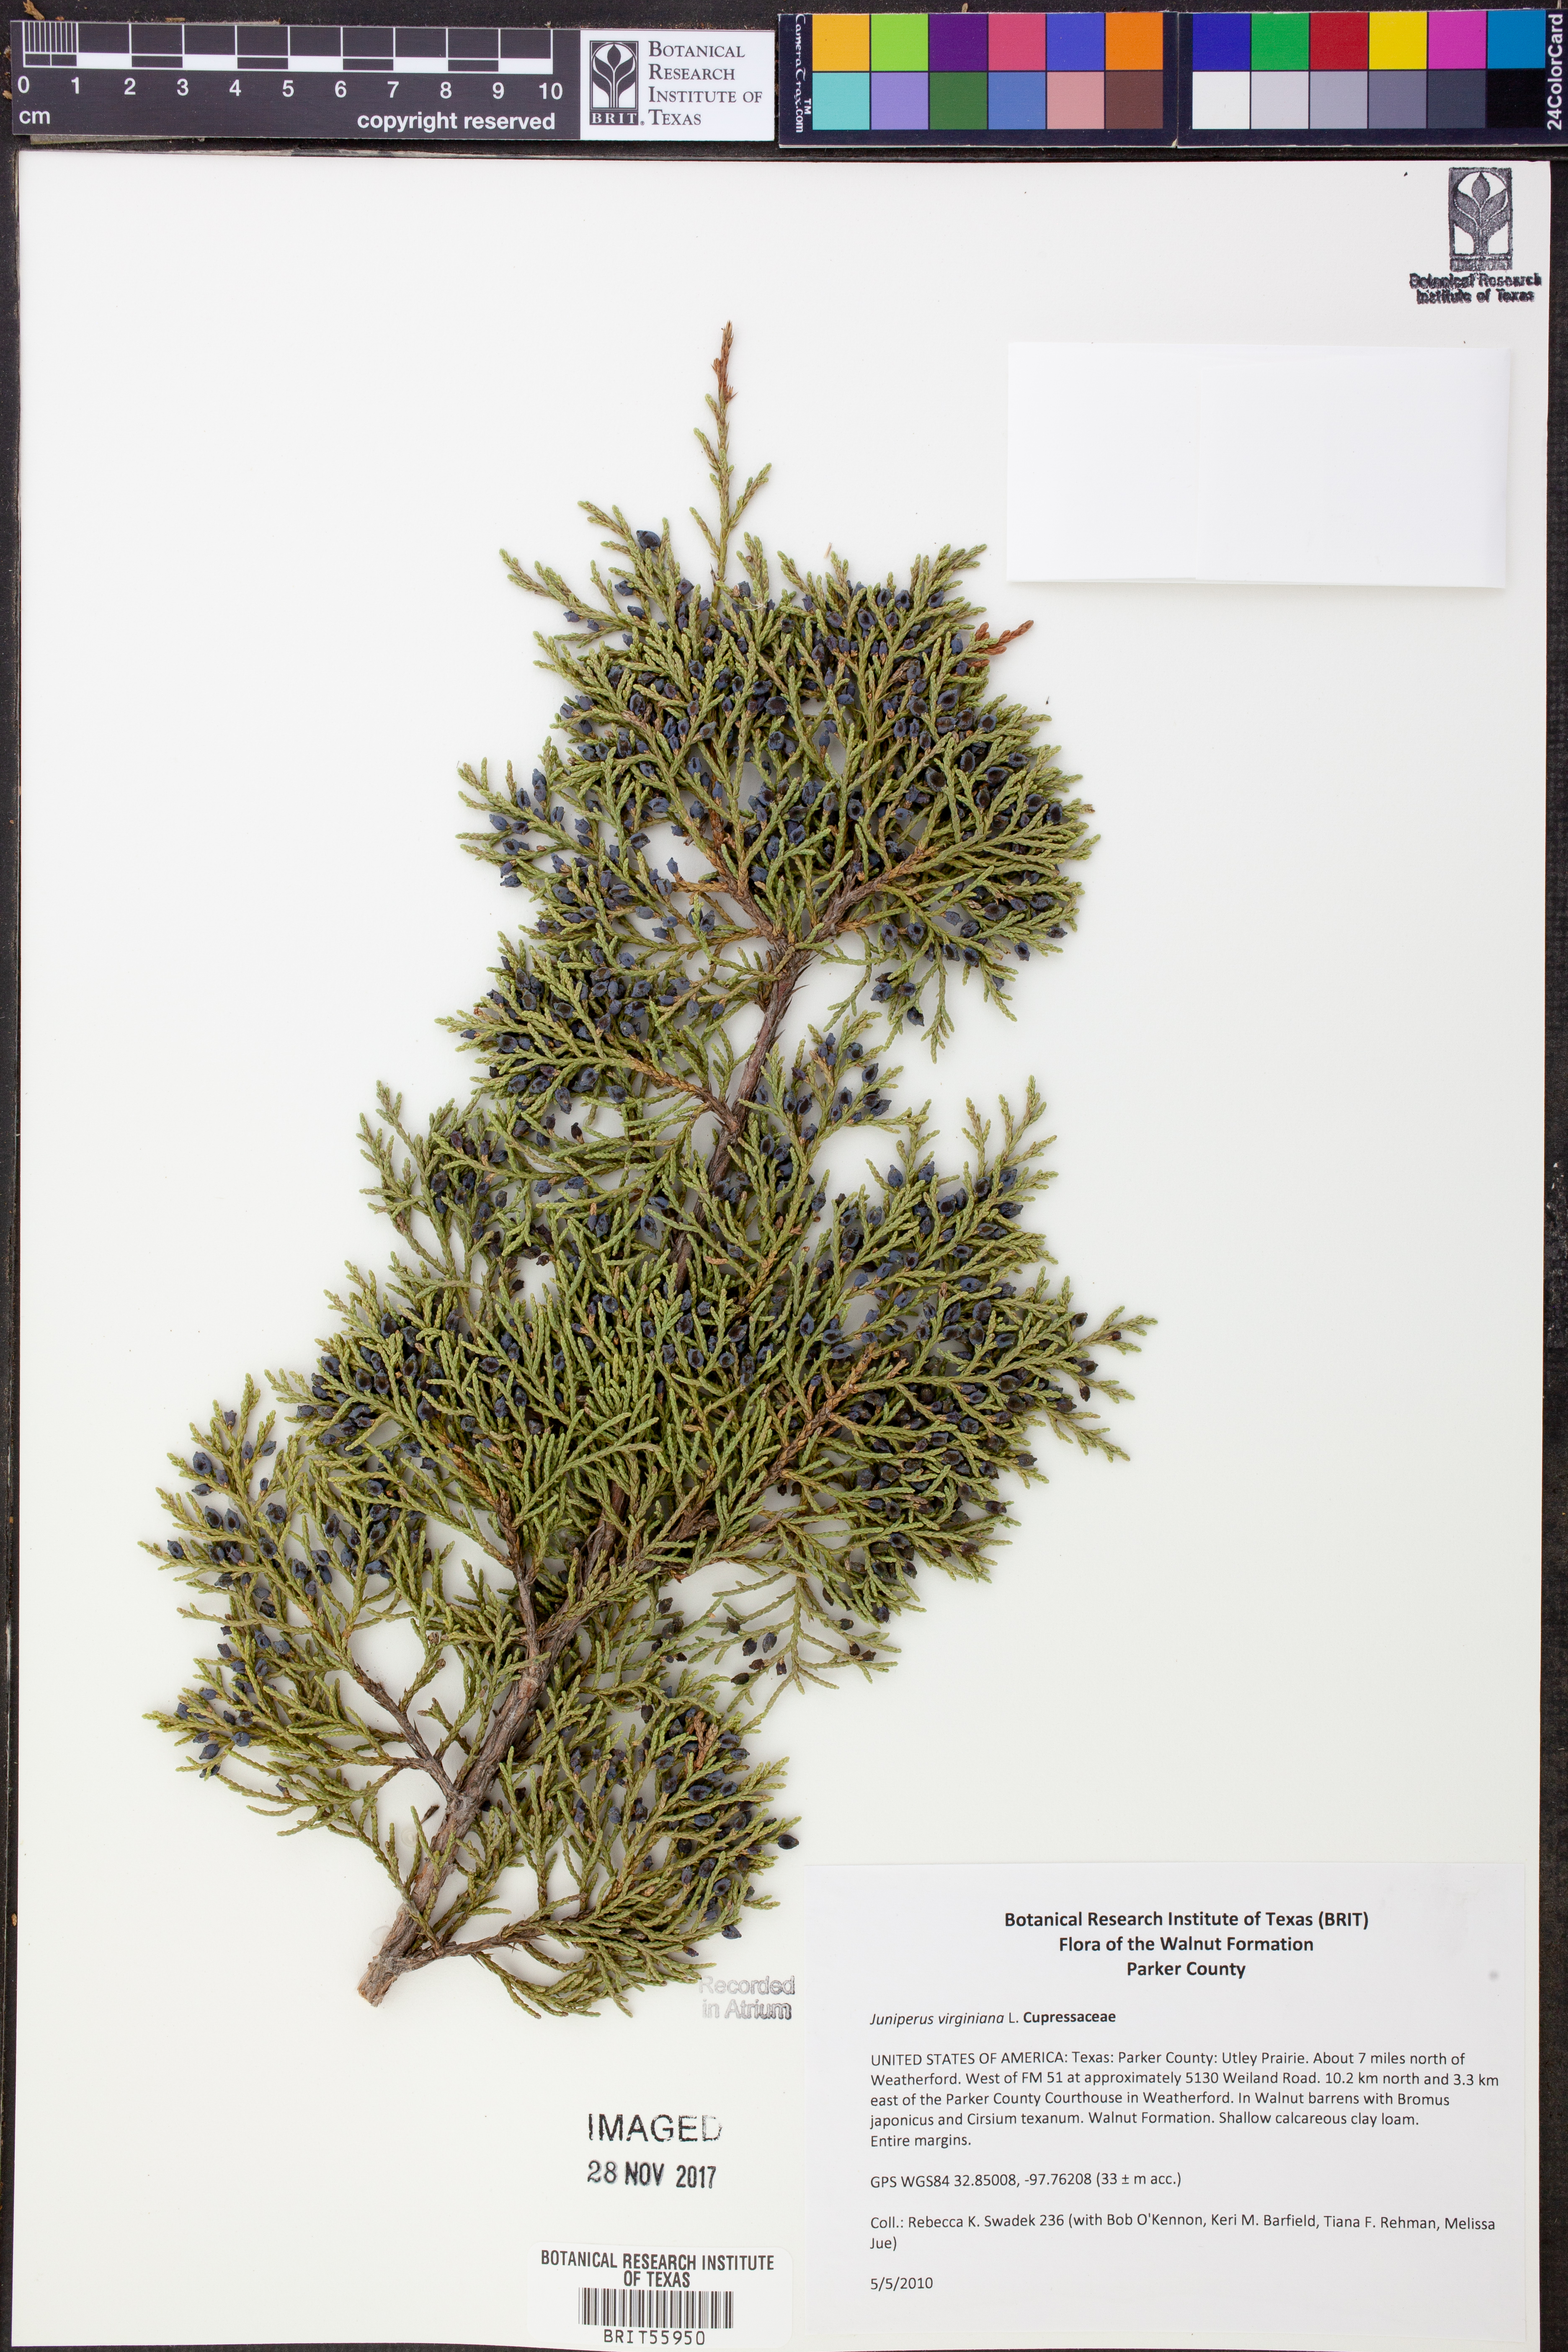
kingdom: Plantae
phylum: Tracheophyta
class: Pinopsida
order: Pinales
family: Cupressaceae
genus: Juniperus
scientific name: Juniperus virginiana
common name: Red juniper
